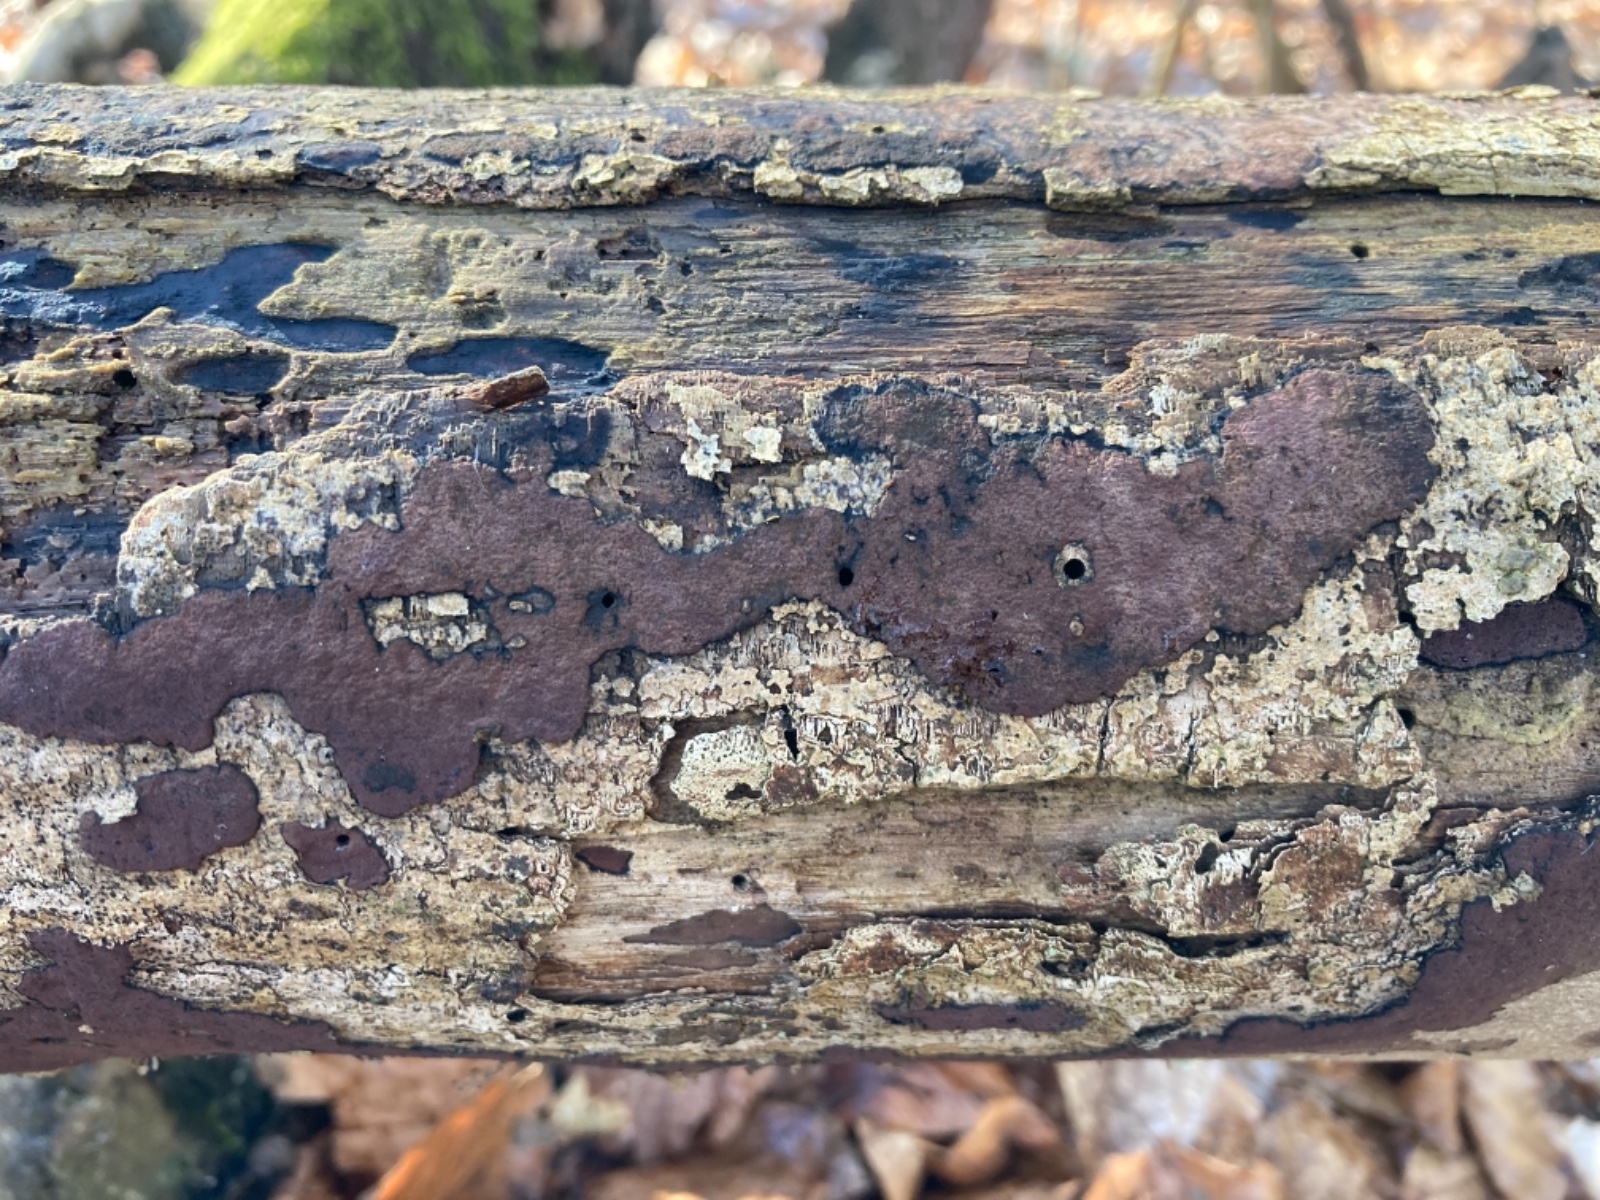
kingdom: Fungi
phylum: Ascomycota
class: Sordariomycetes
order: Xylariales
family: Hypoxylaceae
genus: Hypoxylon
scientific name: Hypoxylon petriniae
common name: nedsænket kulbær
